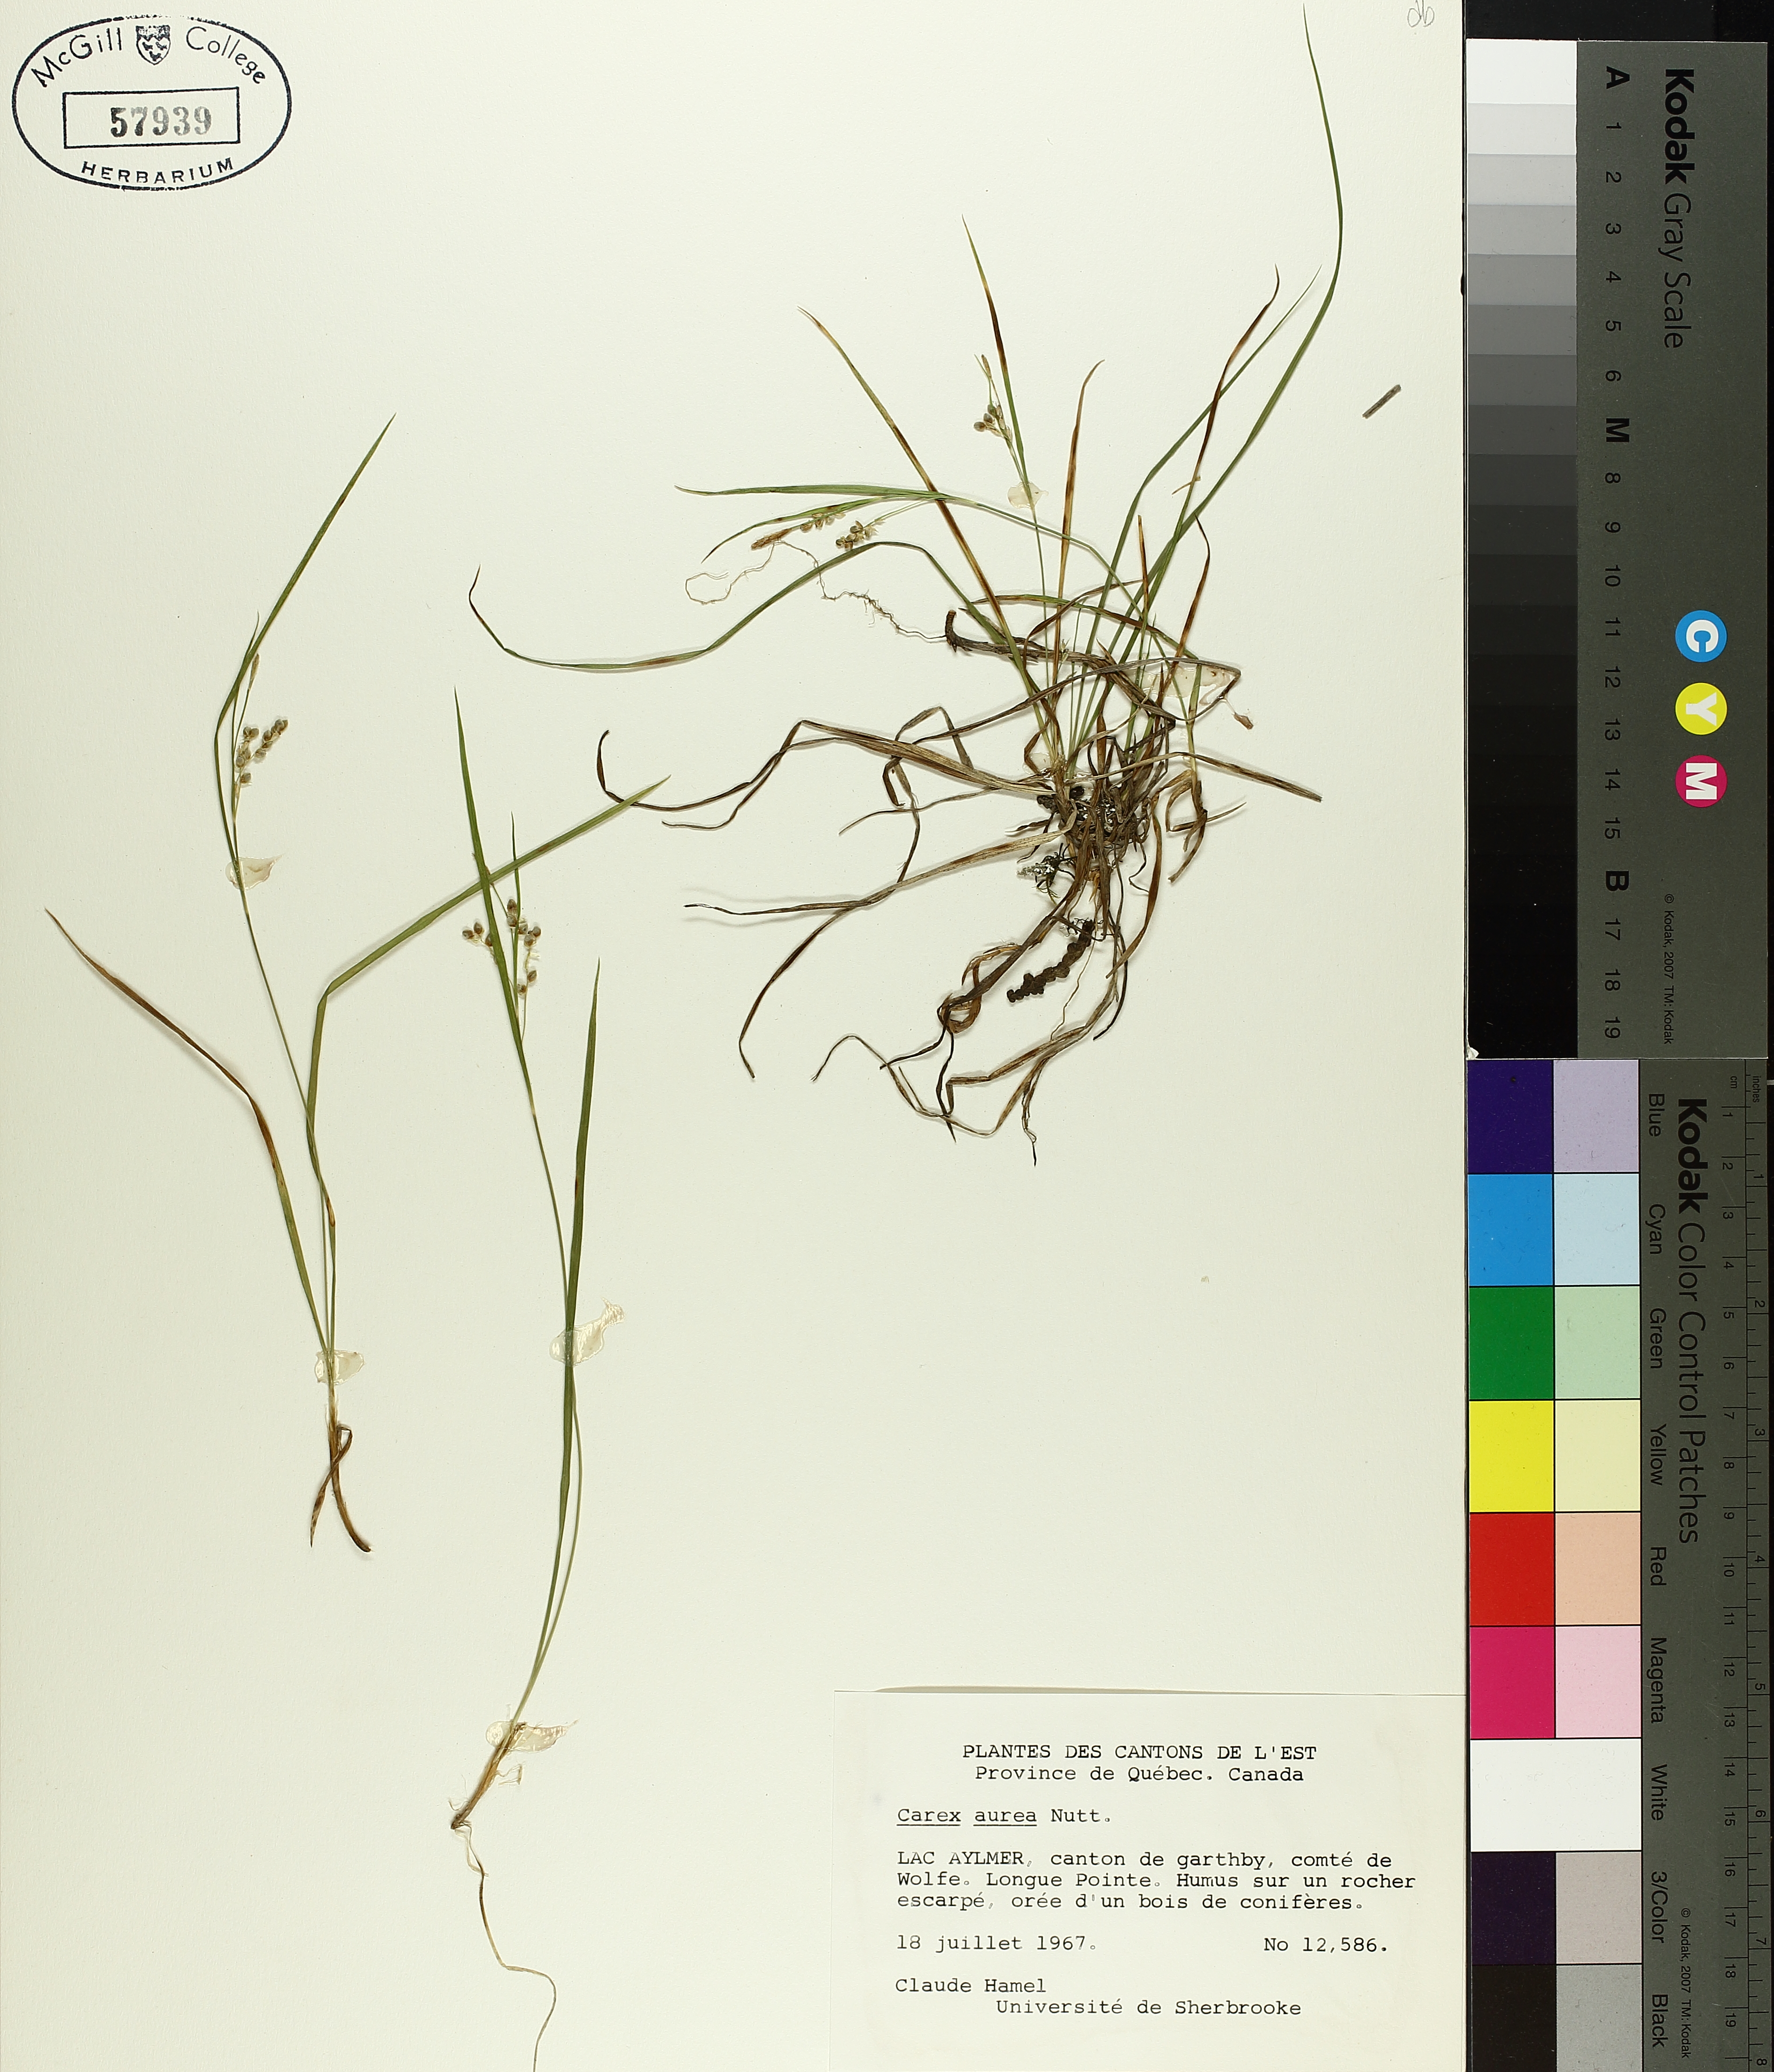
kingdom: Plantae
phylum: Tracheophyta
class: Liliopsida
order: Poales
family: Cyperaceae
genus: Carex
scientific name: Carex aurea
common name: Golden sedge
